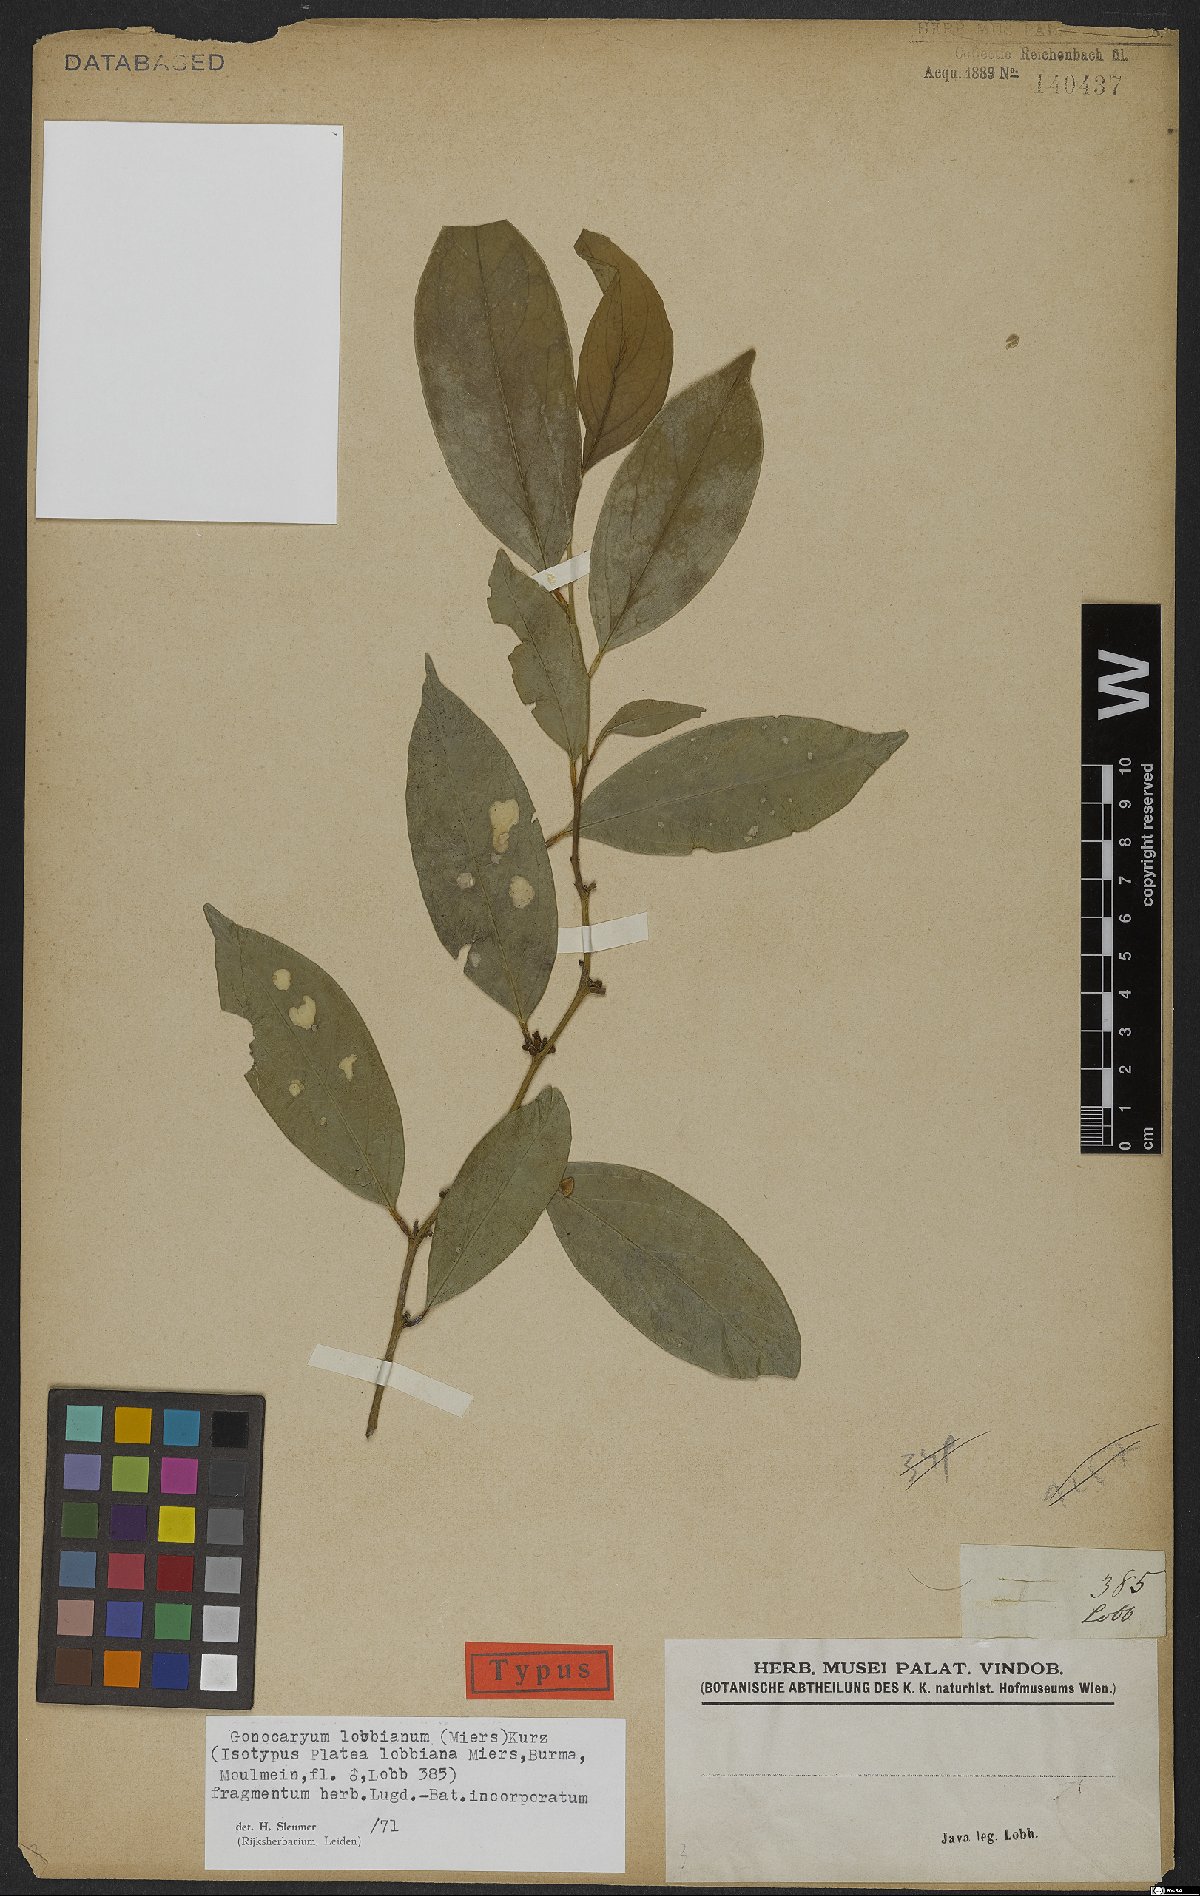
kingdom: Plantae
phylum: Tracheophyta
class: Magnoliopsida
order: Cardiopteridales
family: Cardiopteridaceae
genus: Gonocaryum
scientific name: Gonocaryum lobbianum
